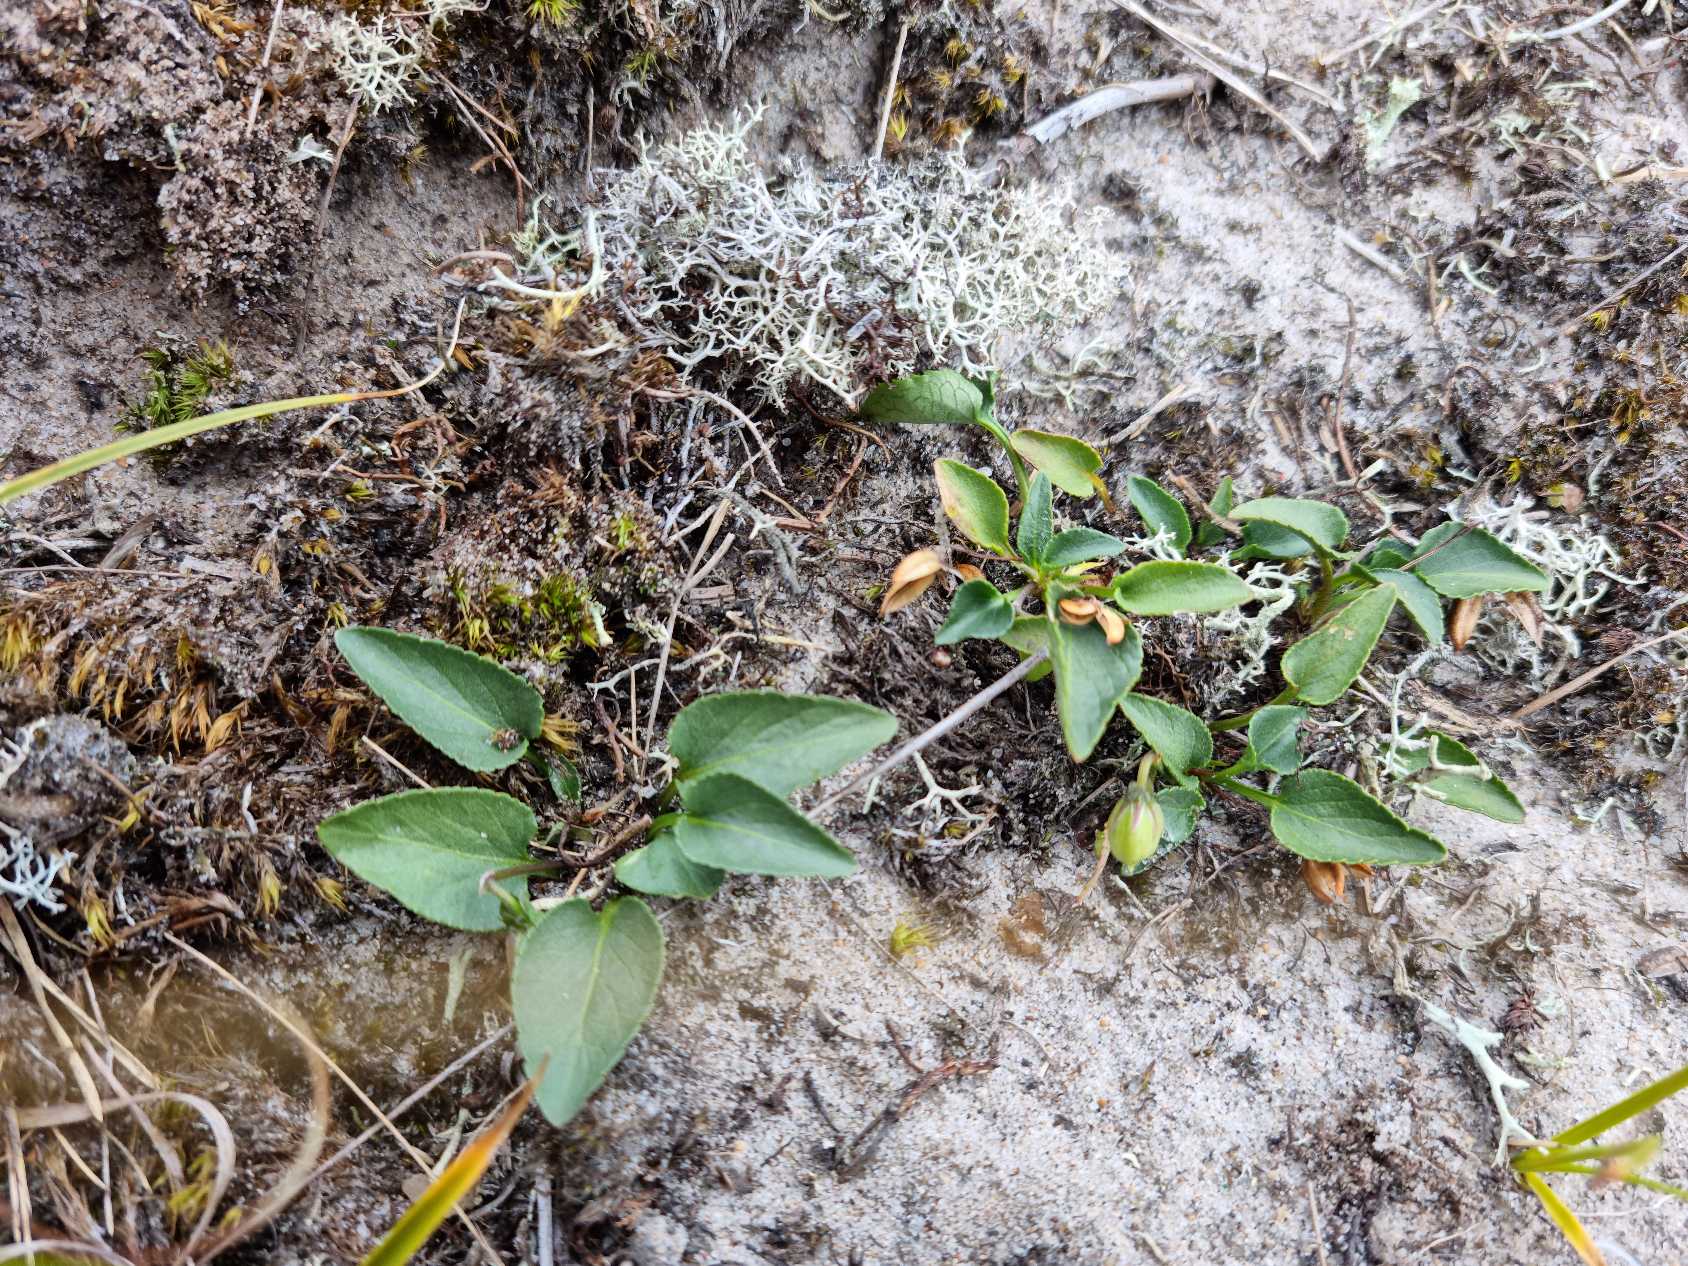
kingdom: Plantae
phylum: Tracheophyta
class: Magnoliopsida
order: Malpighiales
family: Violaceae
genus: Viola
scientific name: Viola canina
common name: Hunde-viol
